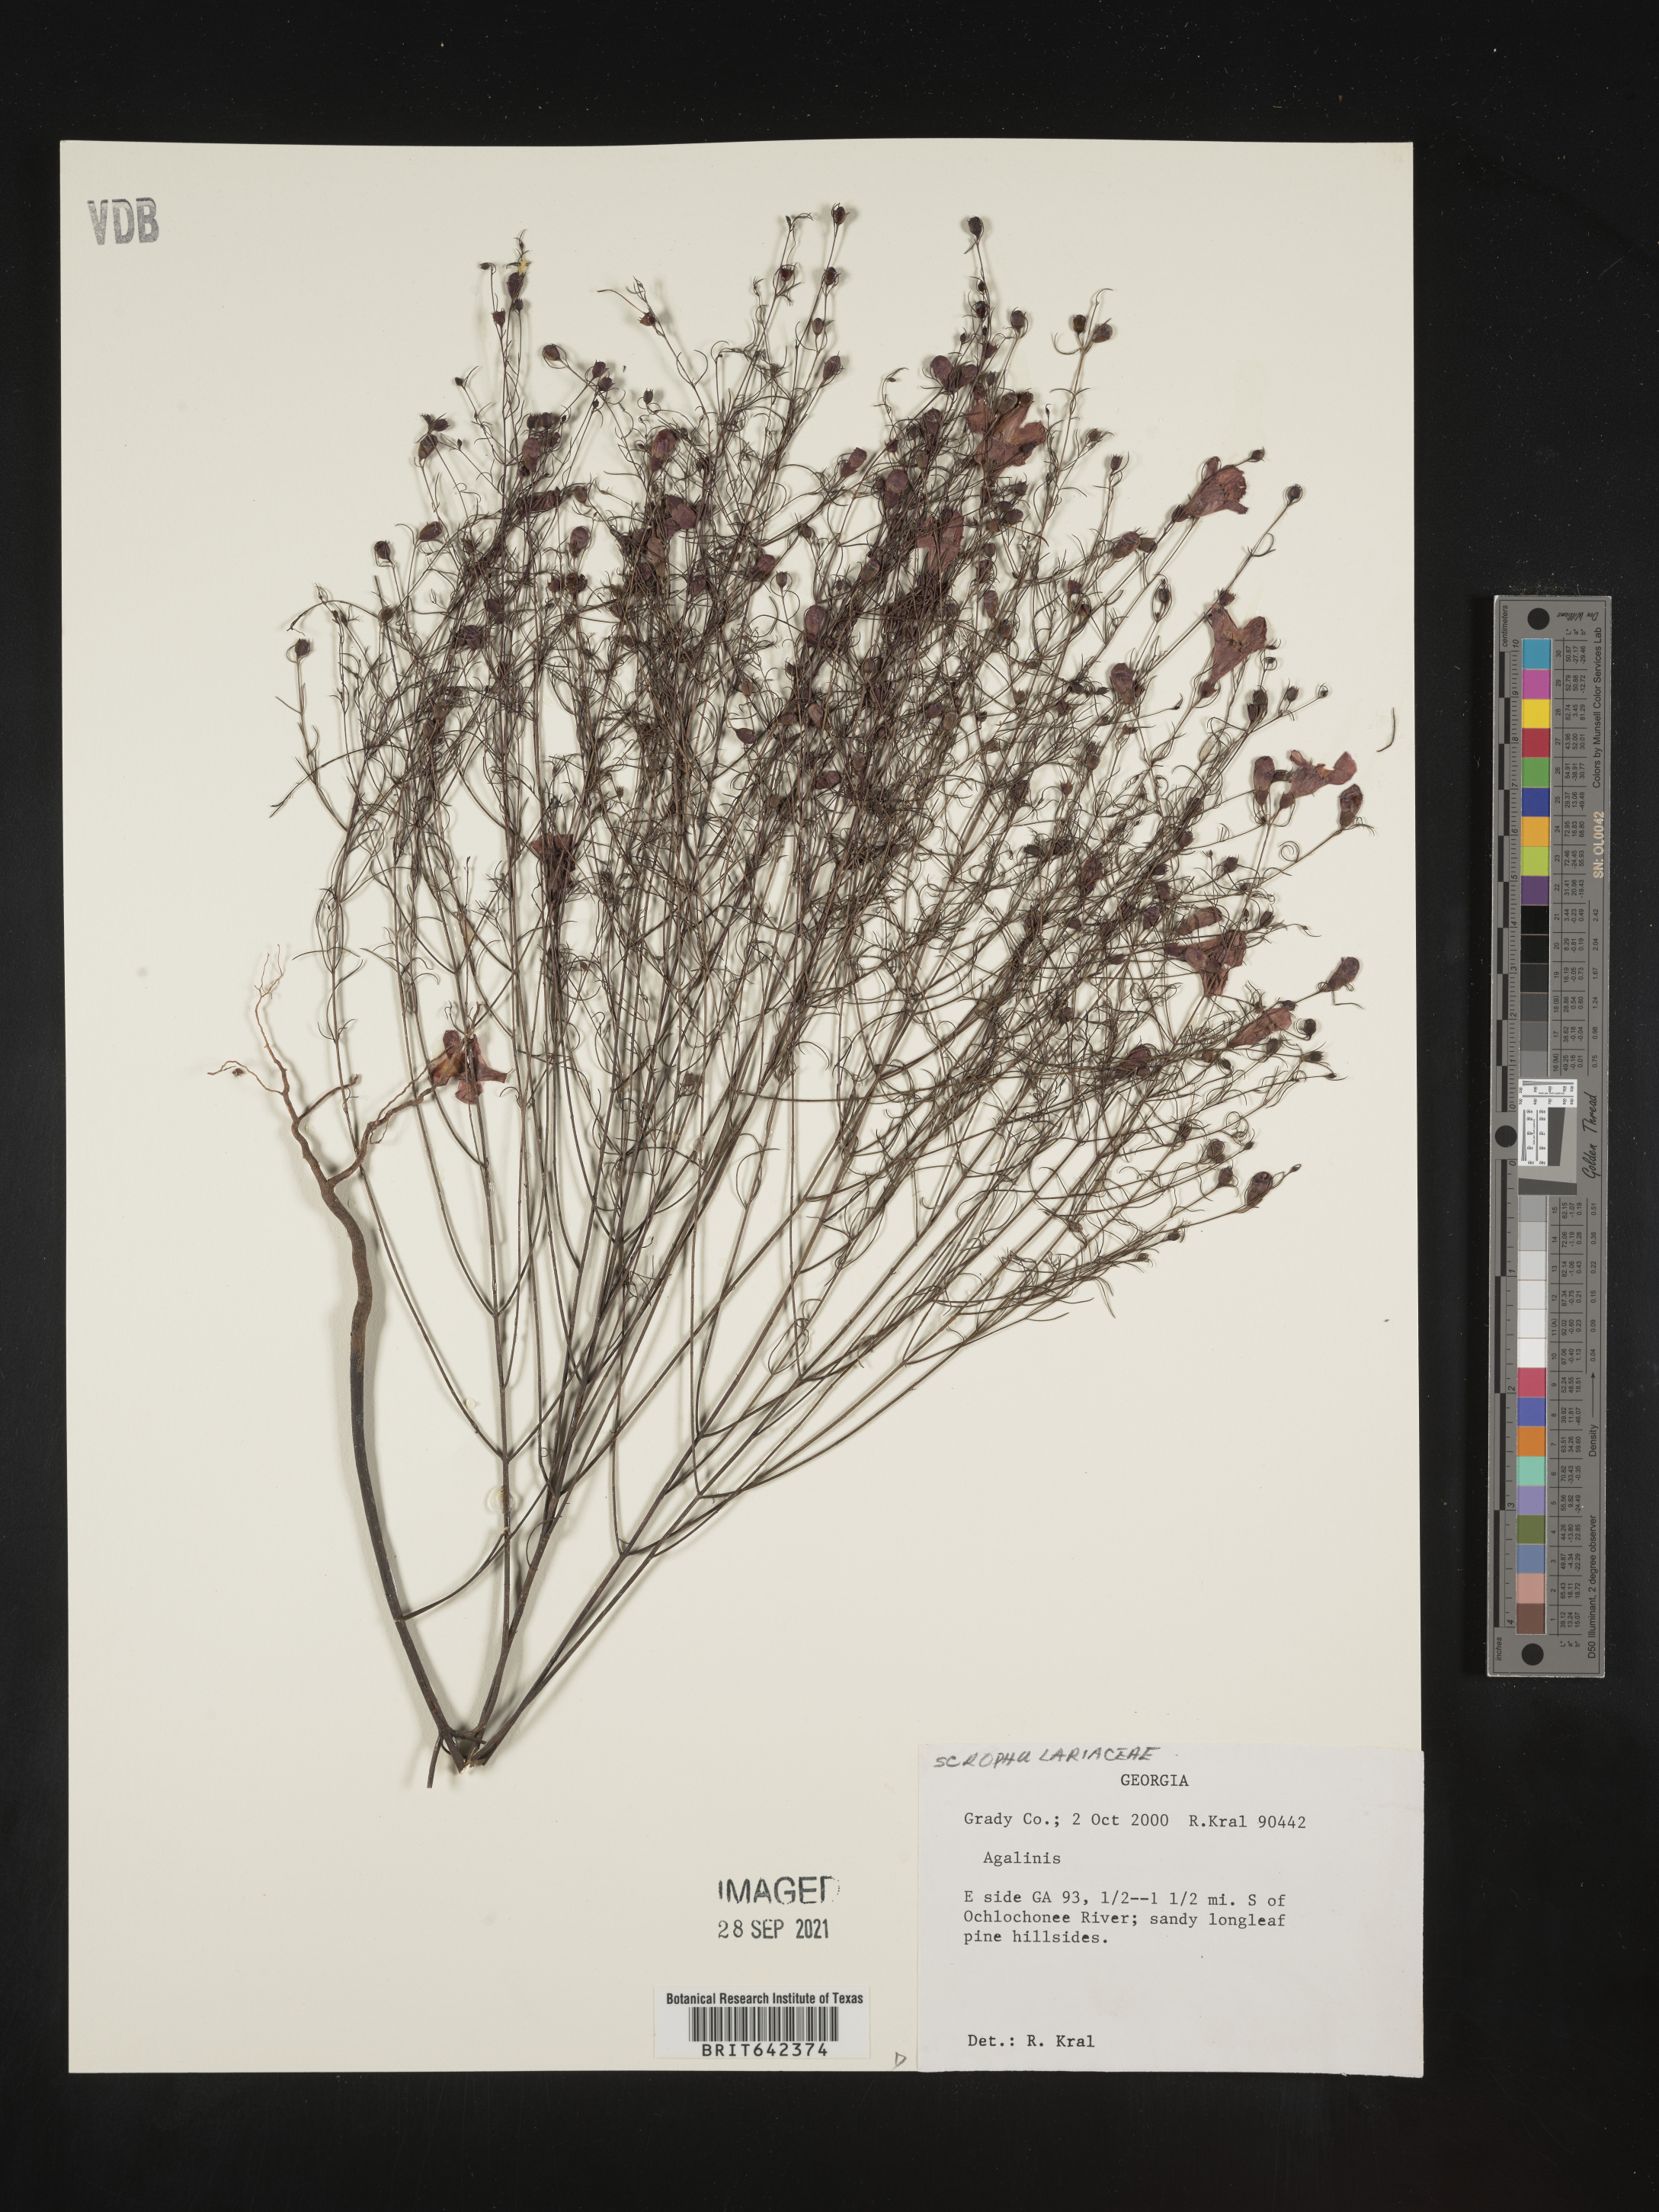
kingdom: Plantae
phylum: Tracheophyta
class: Magnoliopsida
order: Lamiales
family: Orobanchaceae
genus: Agalinis
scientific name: Agalinis
